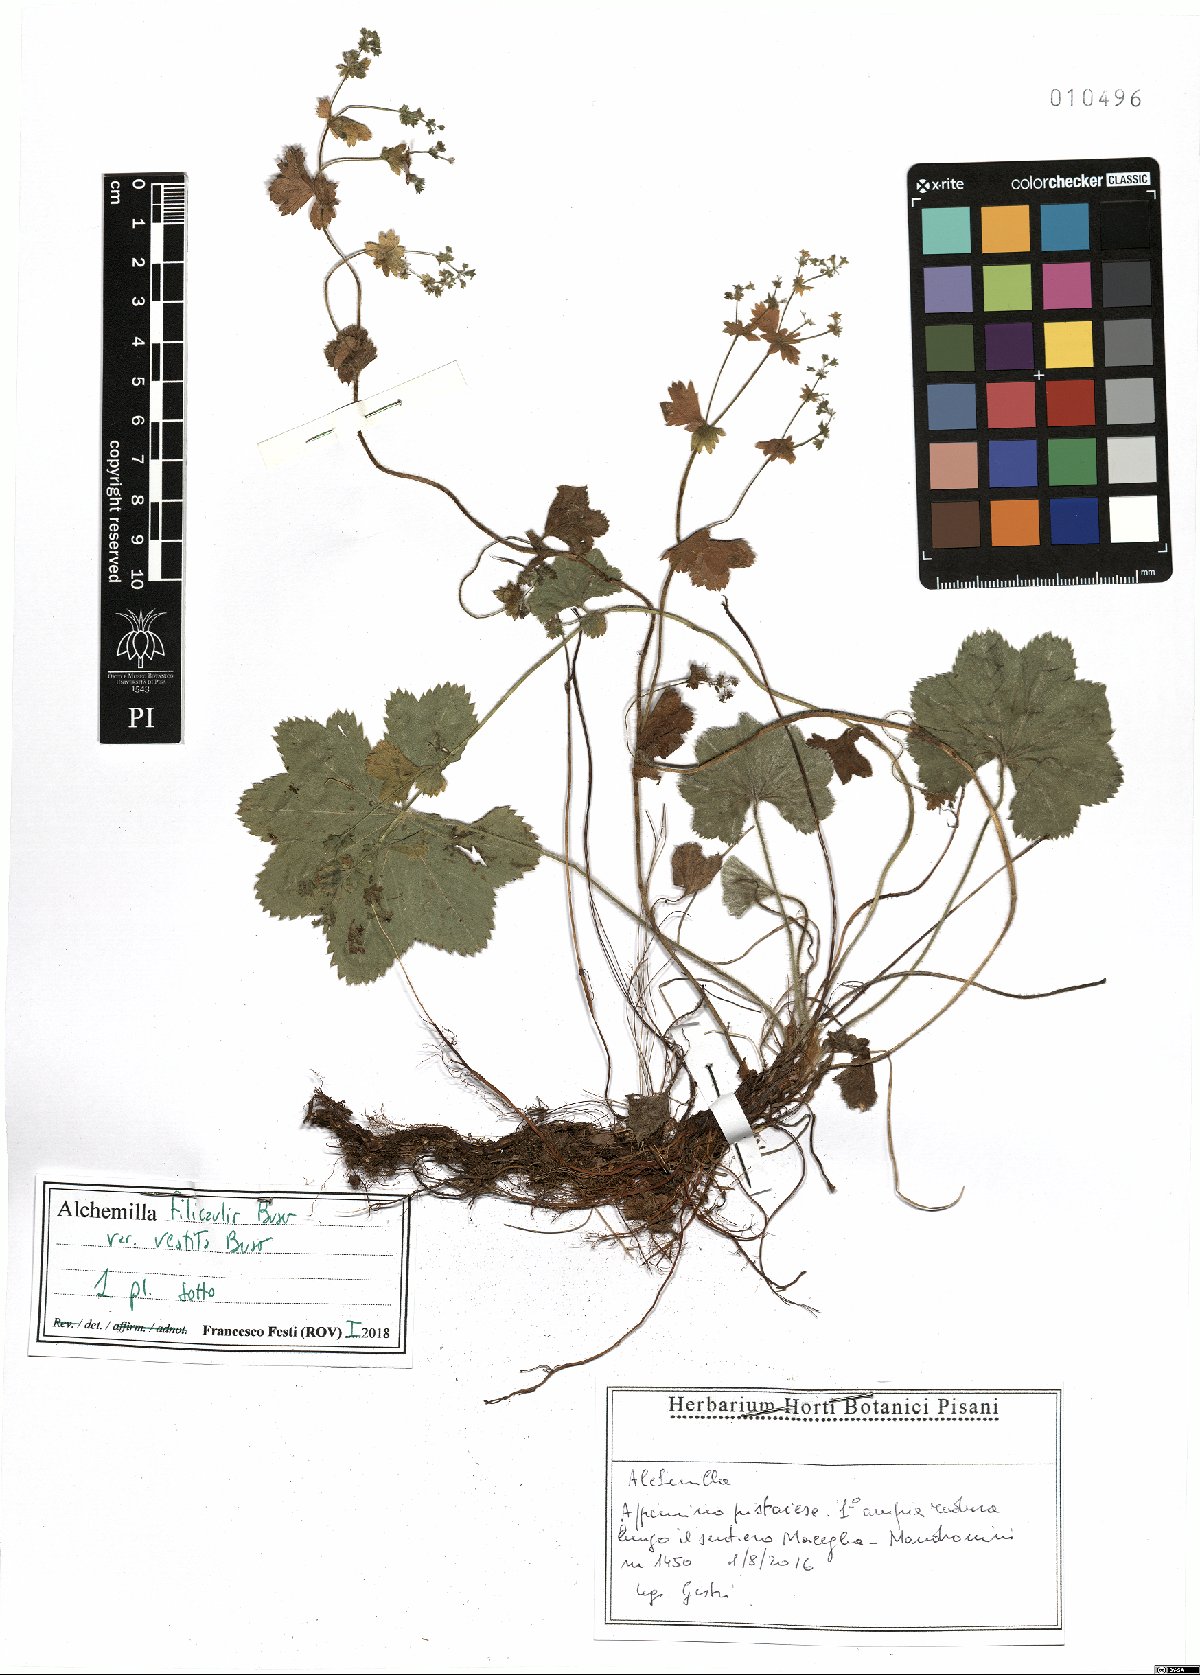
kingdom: Plantae
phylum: Tracheophyta
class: Magnoliopsida
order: Rosales
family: Rosaceae
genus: Alchemilla
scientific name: Alchemilla filicaulis
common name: Hairy lady's-mantle
